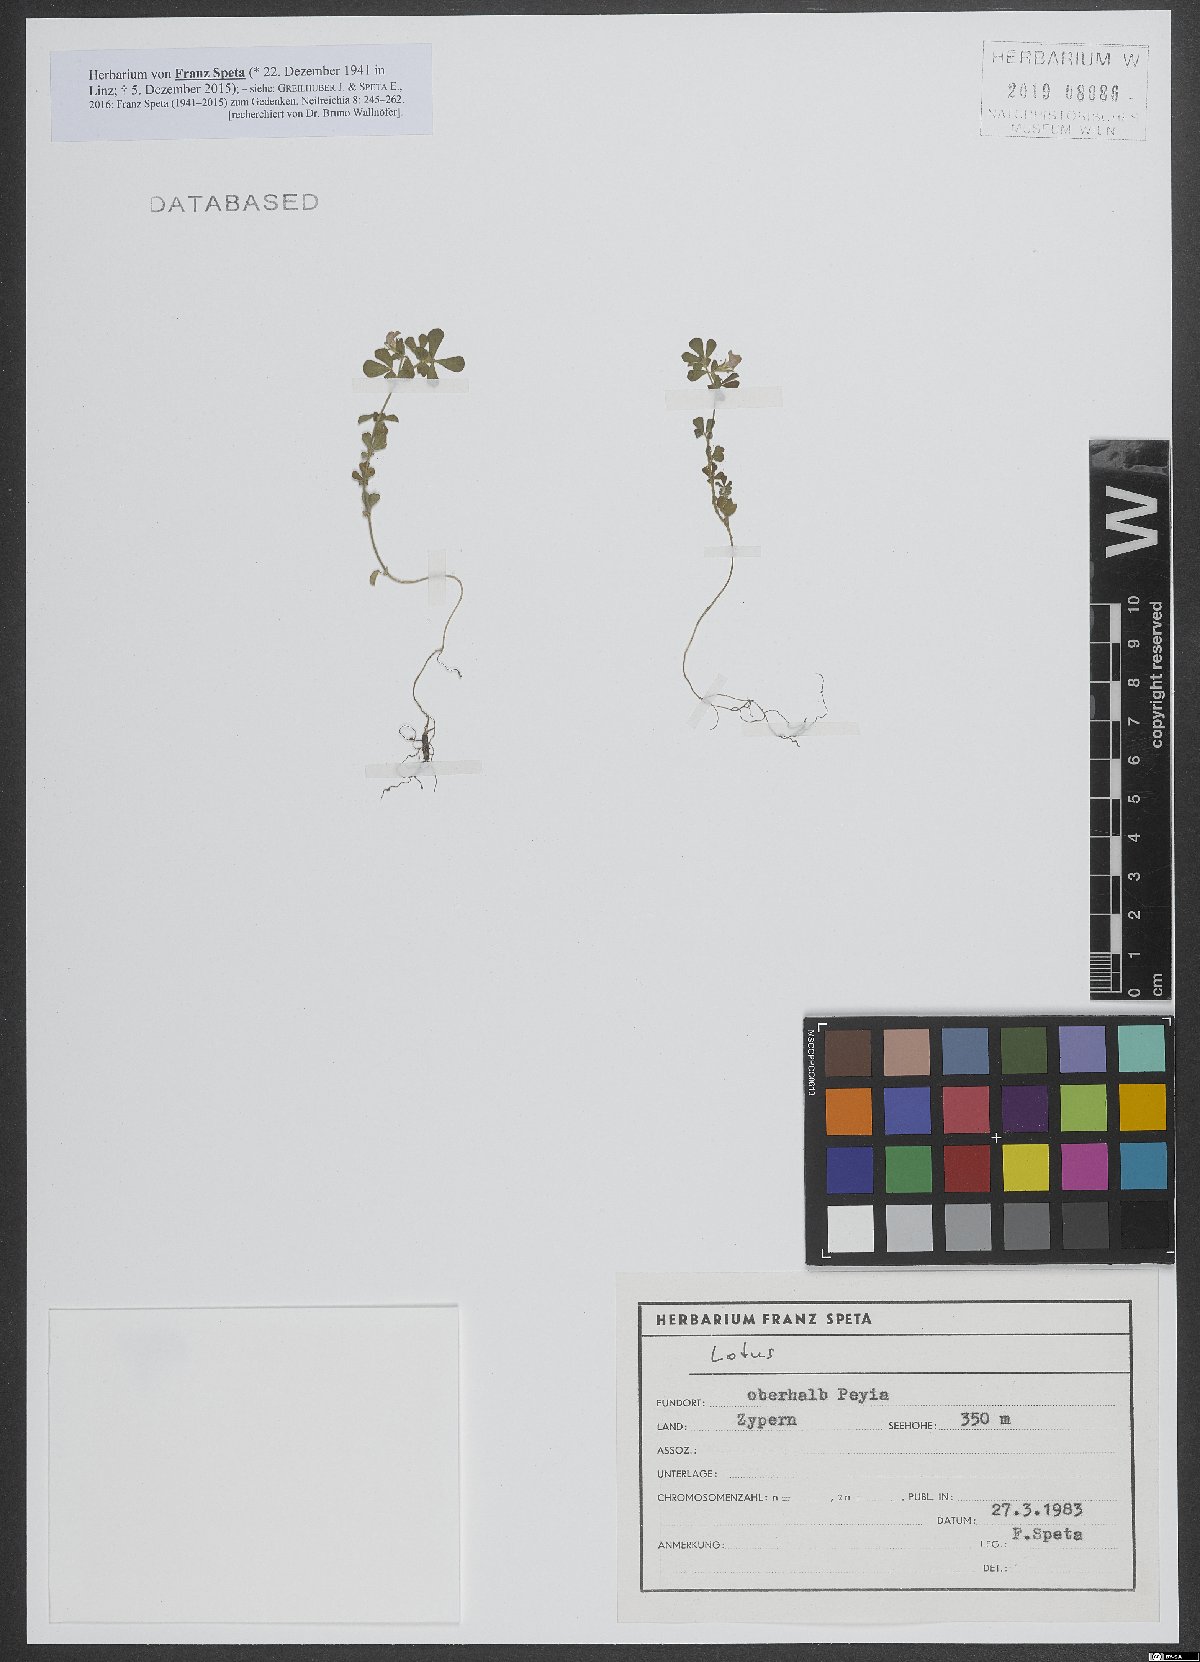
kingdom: Plantae
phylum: Tracheophyta
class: Magnoliopsida
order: Fabales
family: Fabaceae
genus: Lotus
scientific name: Lotus
